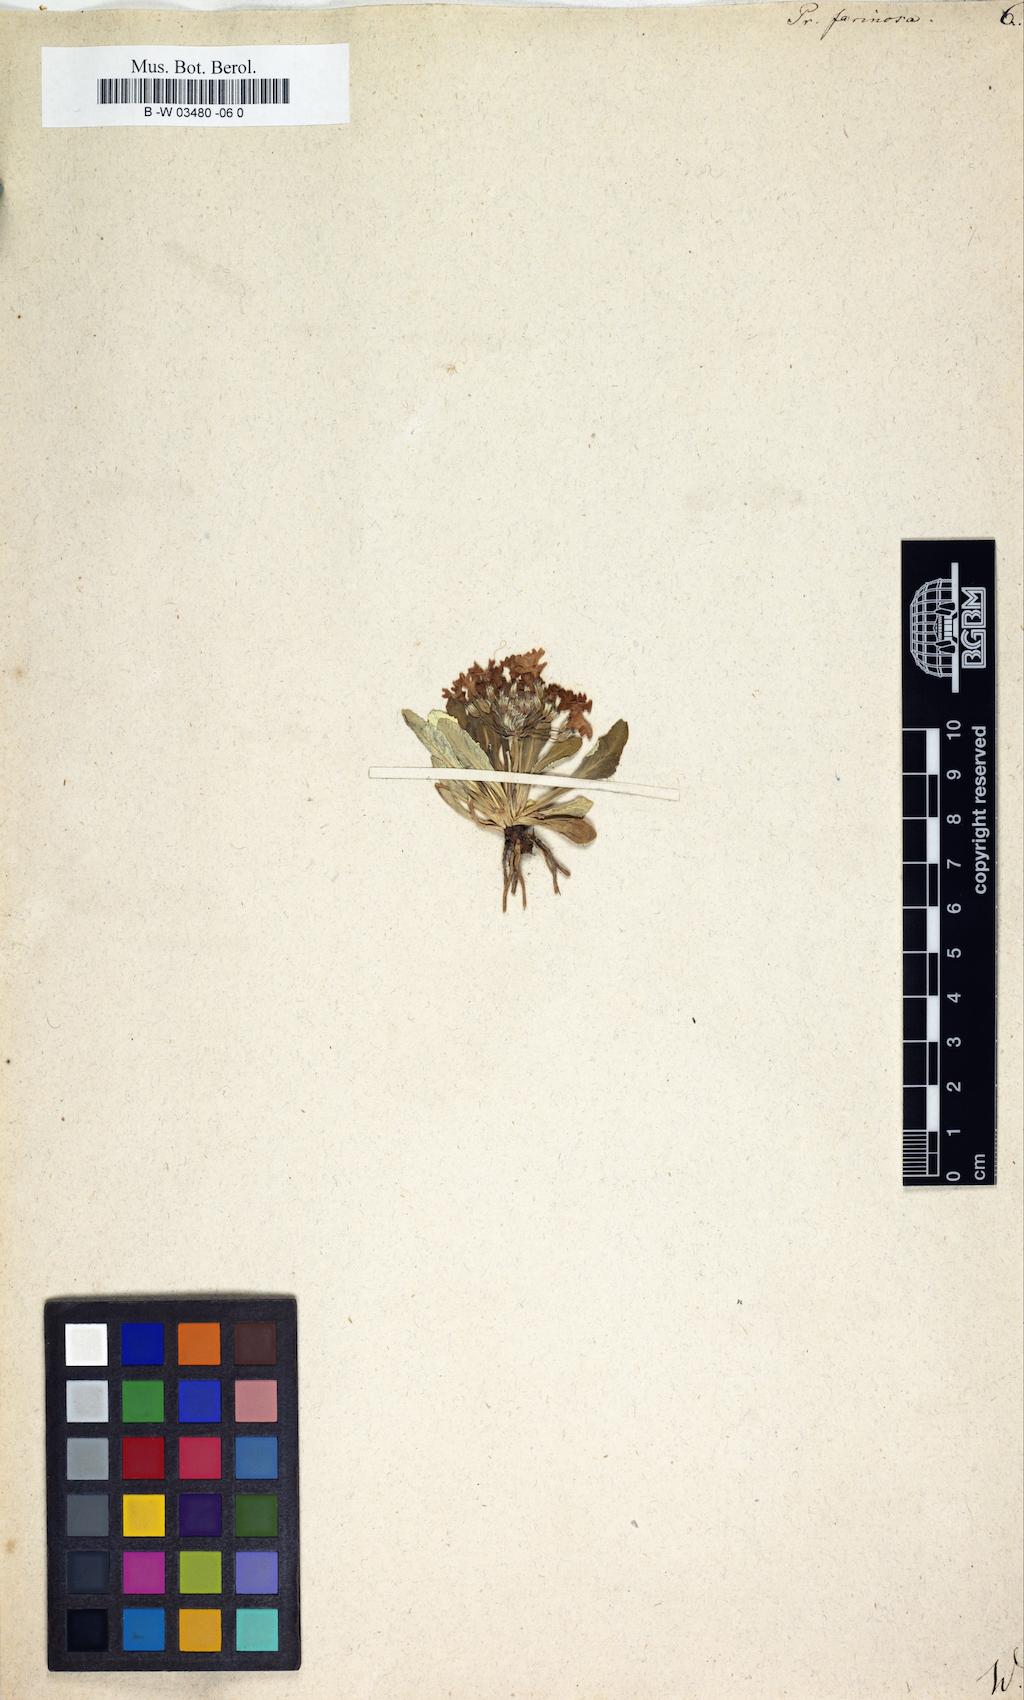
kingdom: Plantae
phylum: Tracheophyta
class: Magnoliopsida
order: Ericales
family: Primulaceae
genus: Primula
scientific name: Primula farinosa
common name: Bird's-eye primrose
